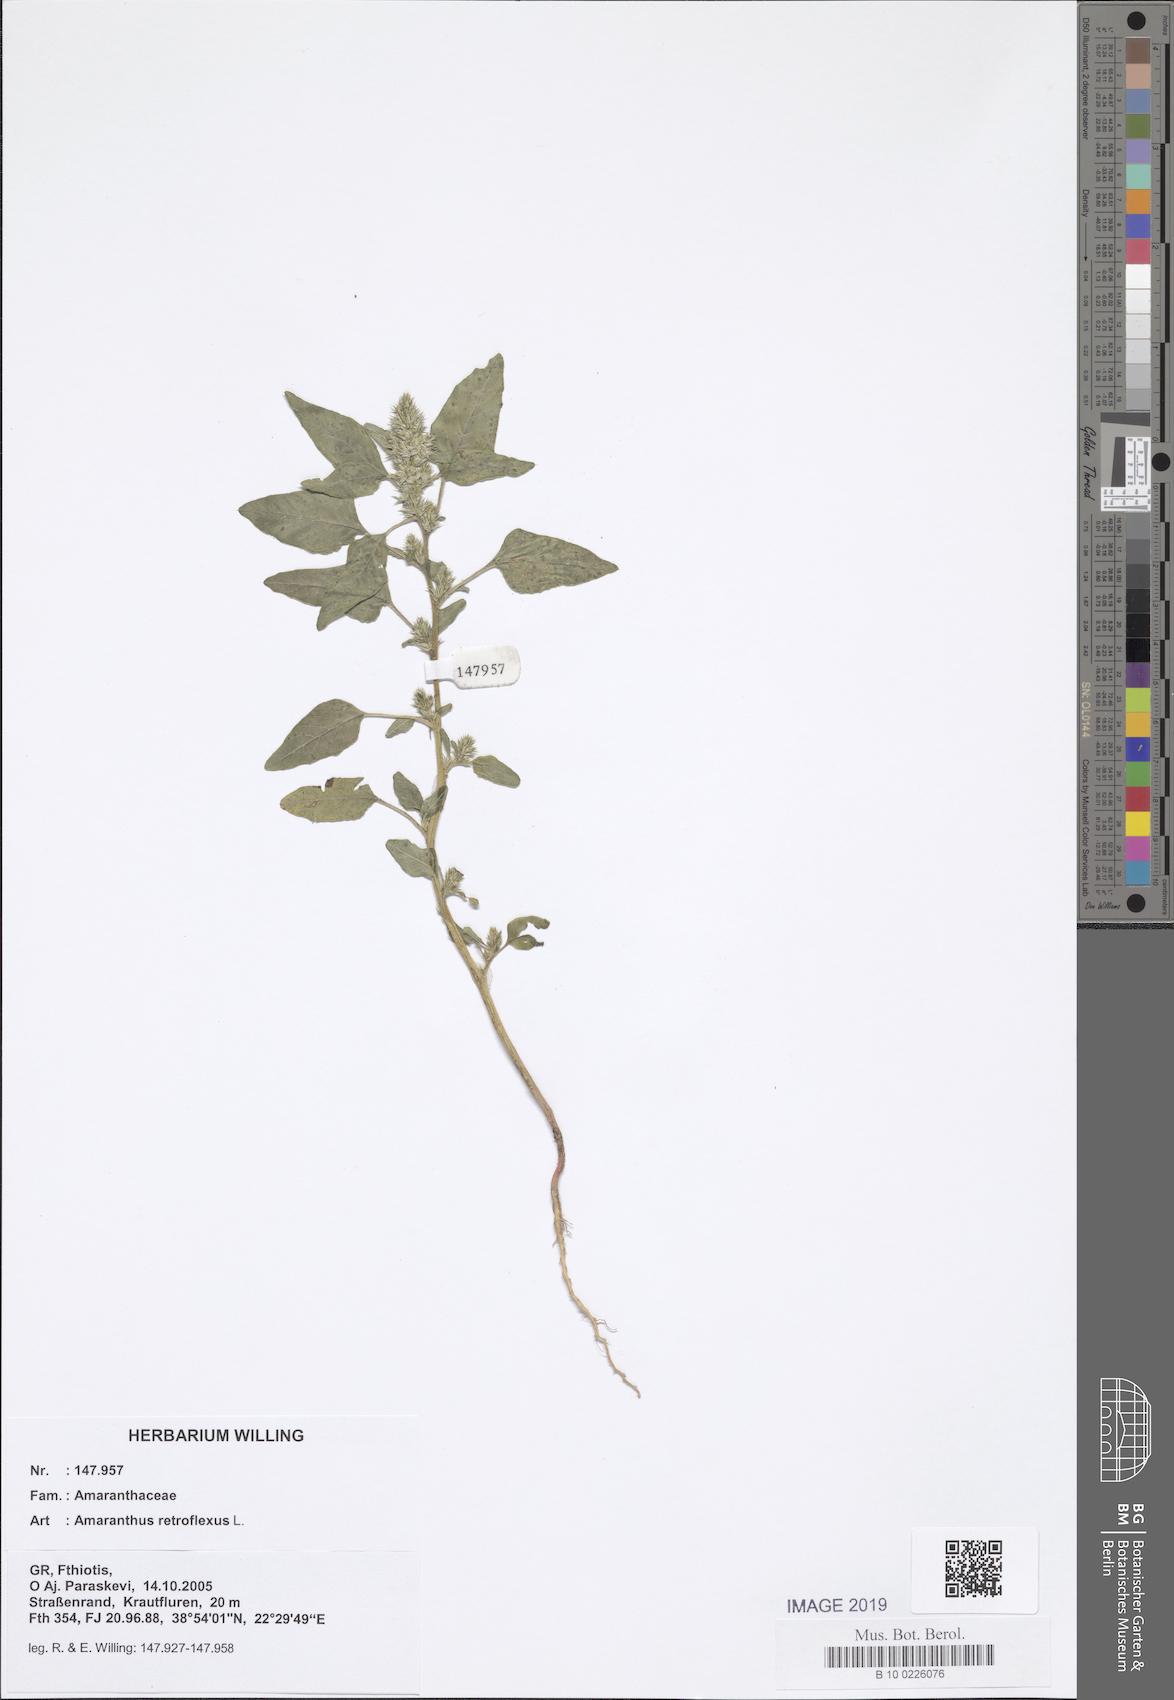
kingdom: Plantae
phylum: Tracheophyta
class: Magnoliopsida
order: Caryophyllales
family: Amaranthaceae
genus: Amaranthus
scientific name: Amaranthus retroflexus
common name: Redroot amaranth
